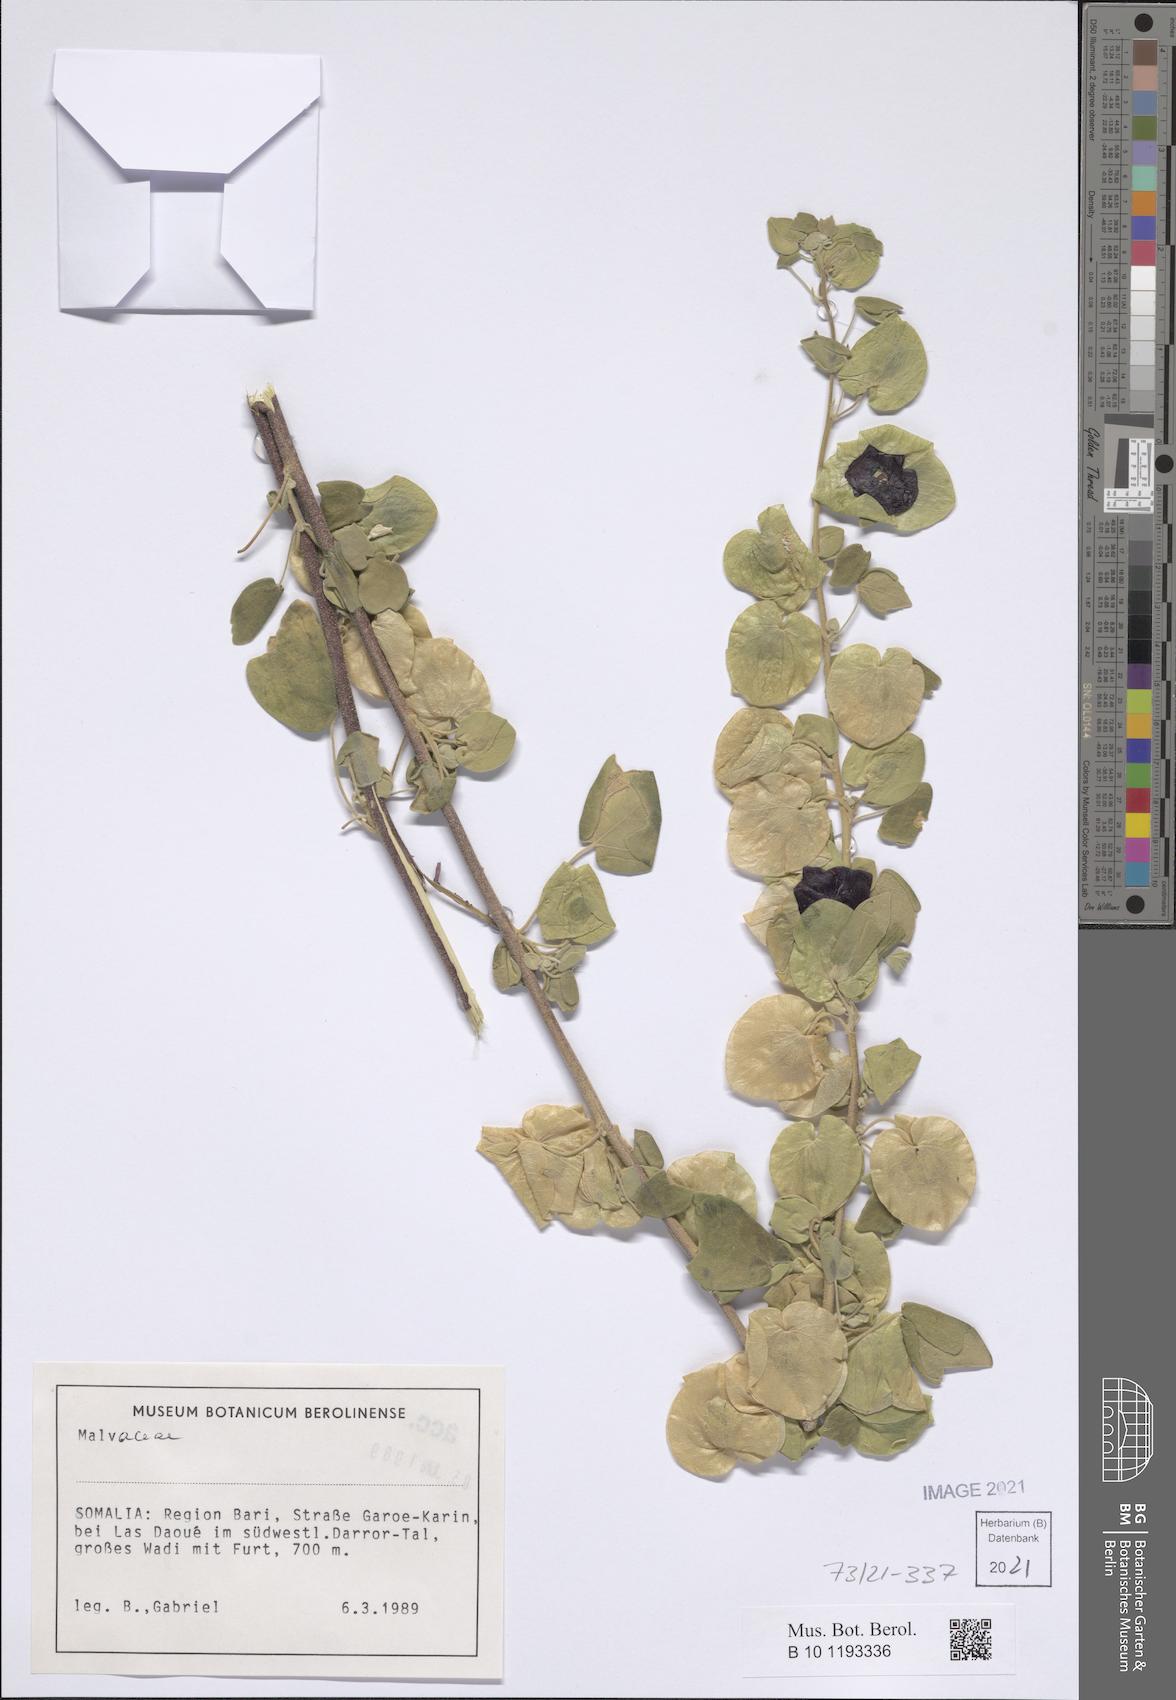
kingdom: Plantae
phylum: Tracheophyta
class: Magnoliopsida
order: Malvales
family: Malvaceae
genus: Senra
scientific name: Senra incana
